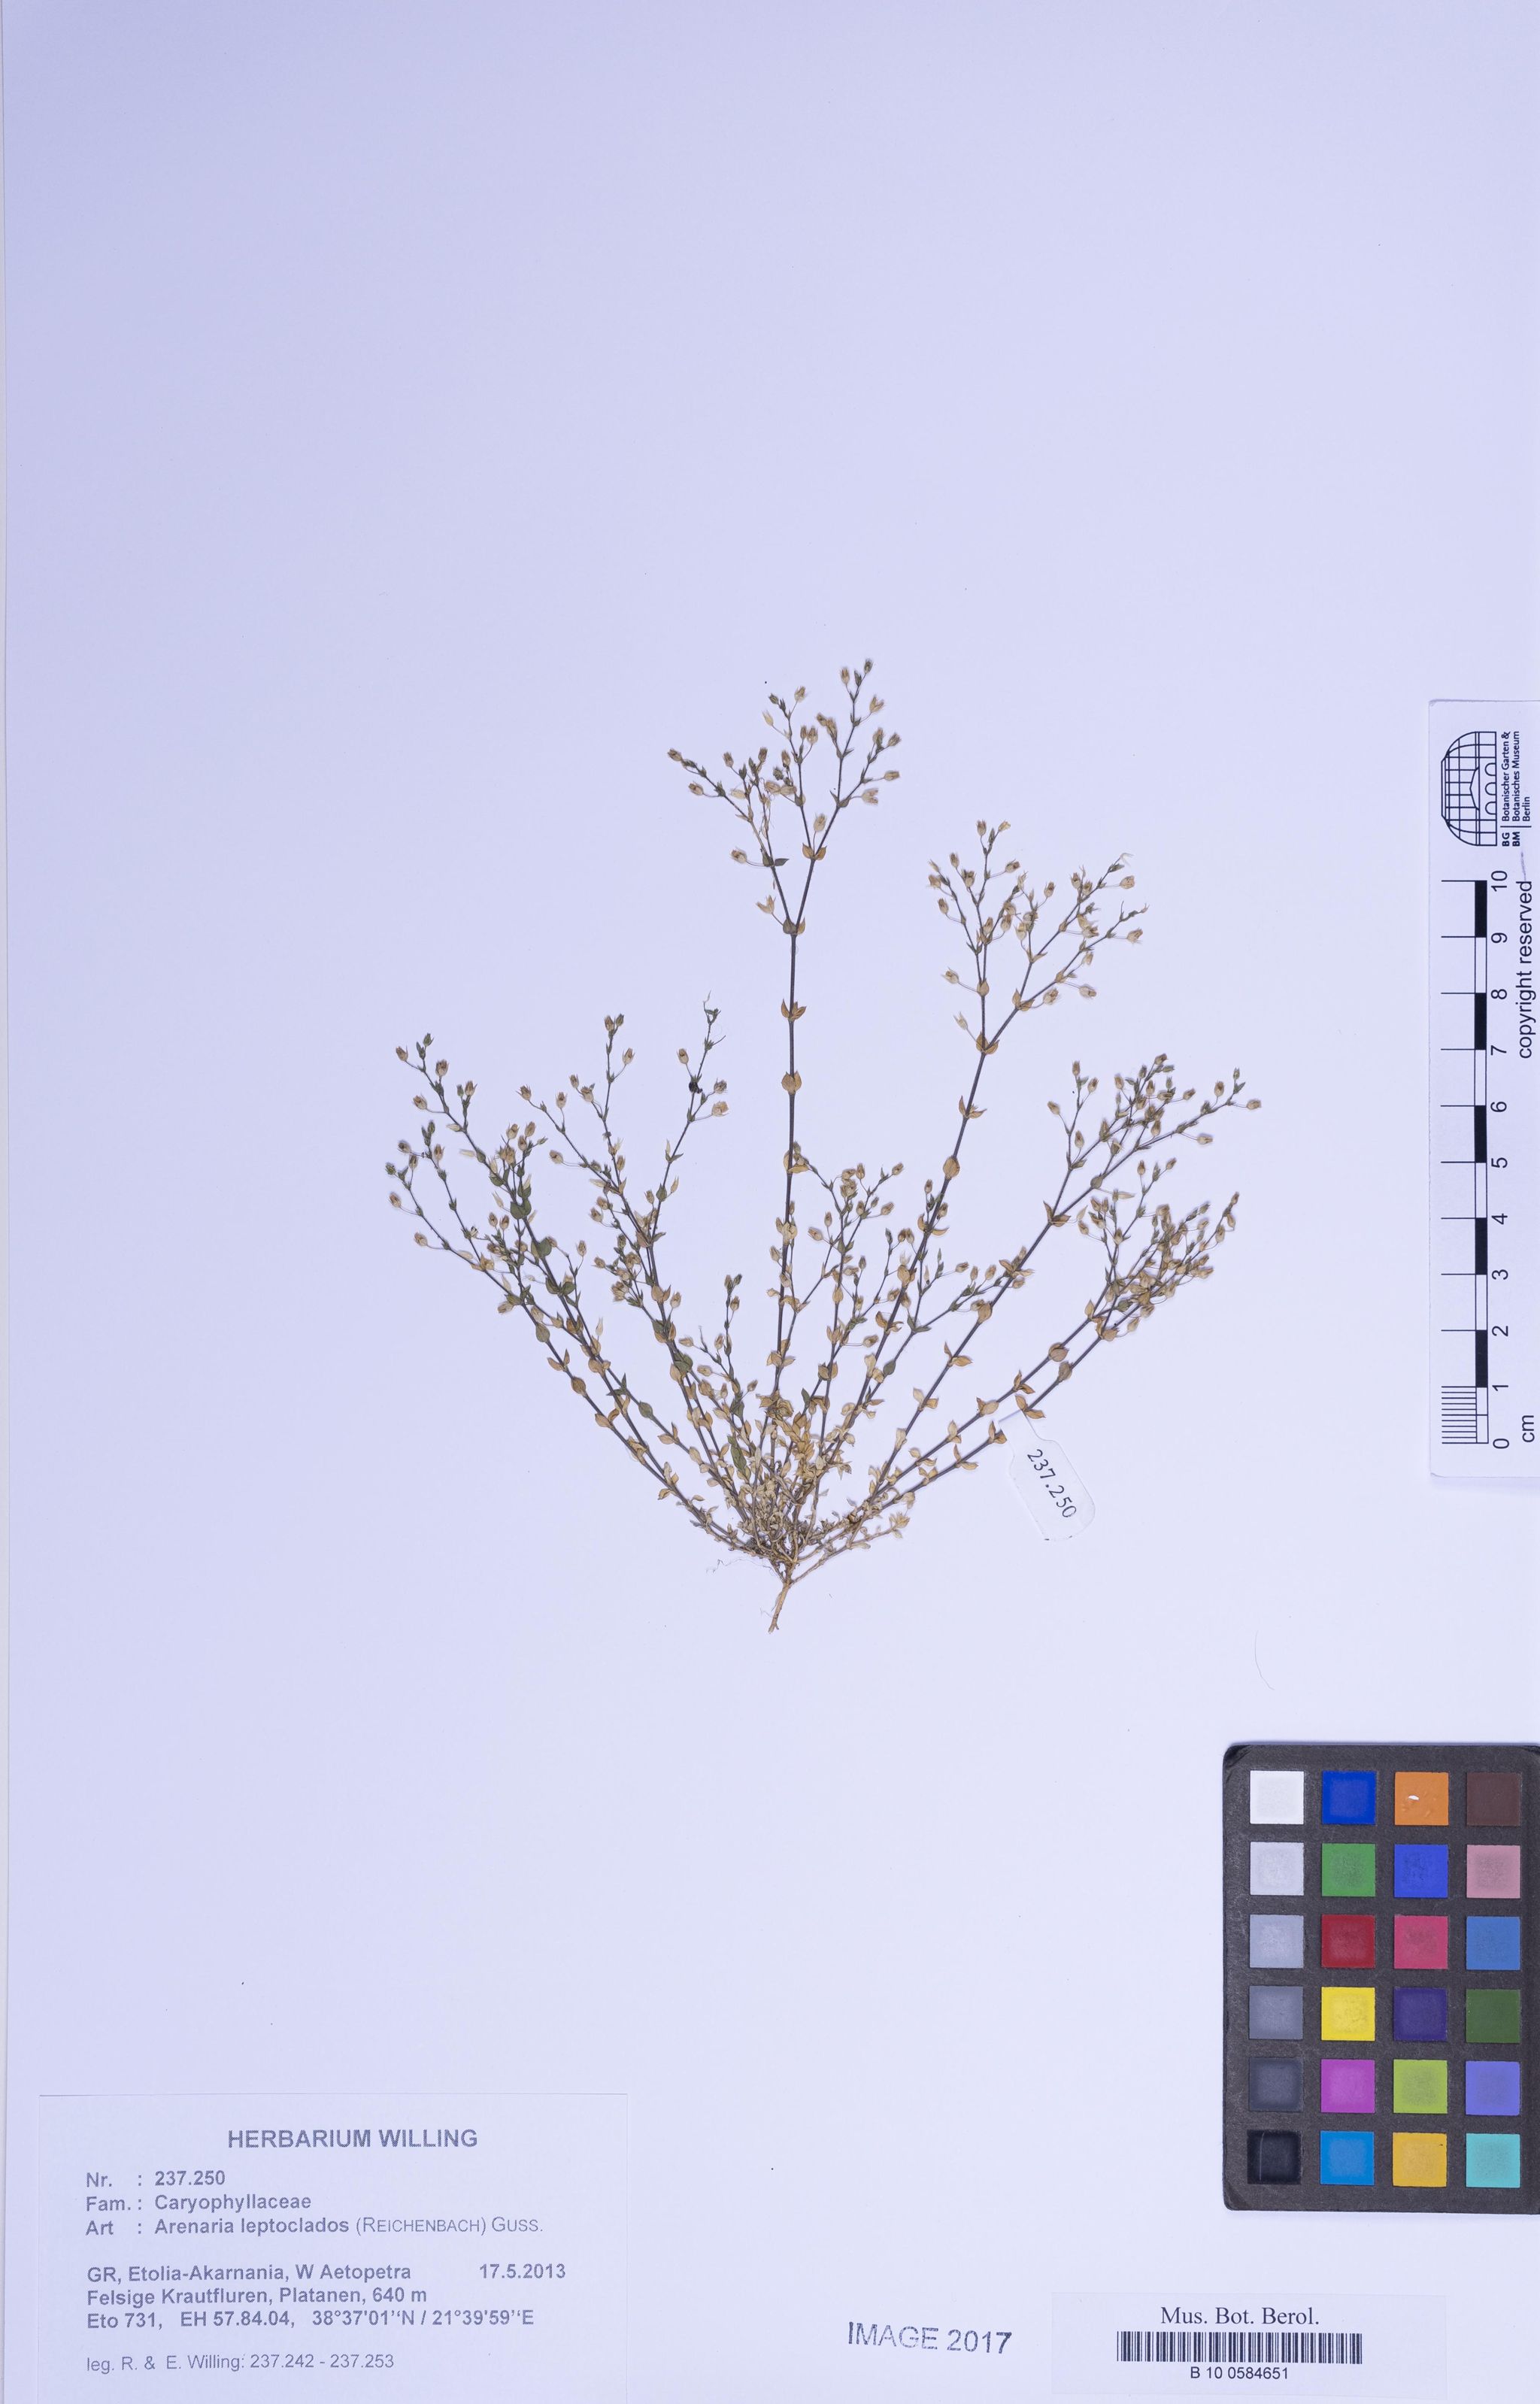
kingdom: Plantae
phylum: Tracheophyta
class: Magnoliopsida
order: Caryophyllales
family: Caryophyllaceae
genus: Arenaria
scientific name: Arenaria leptoclados
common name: Thyme-leaved sandwort
